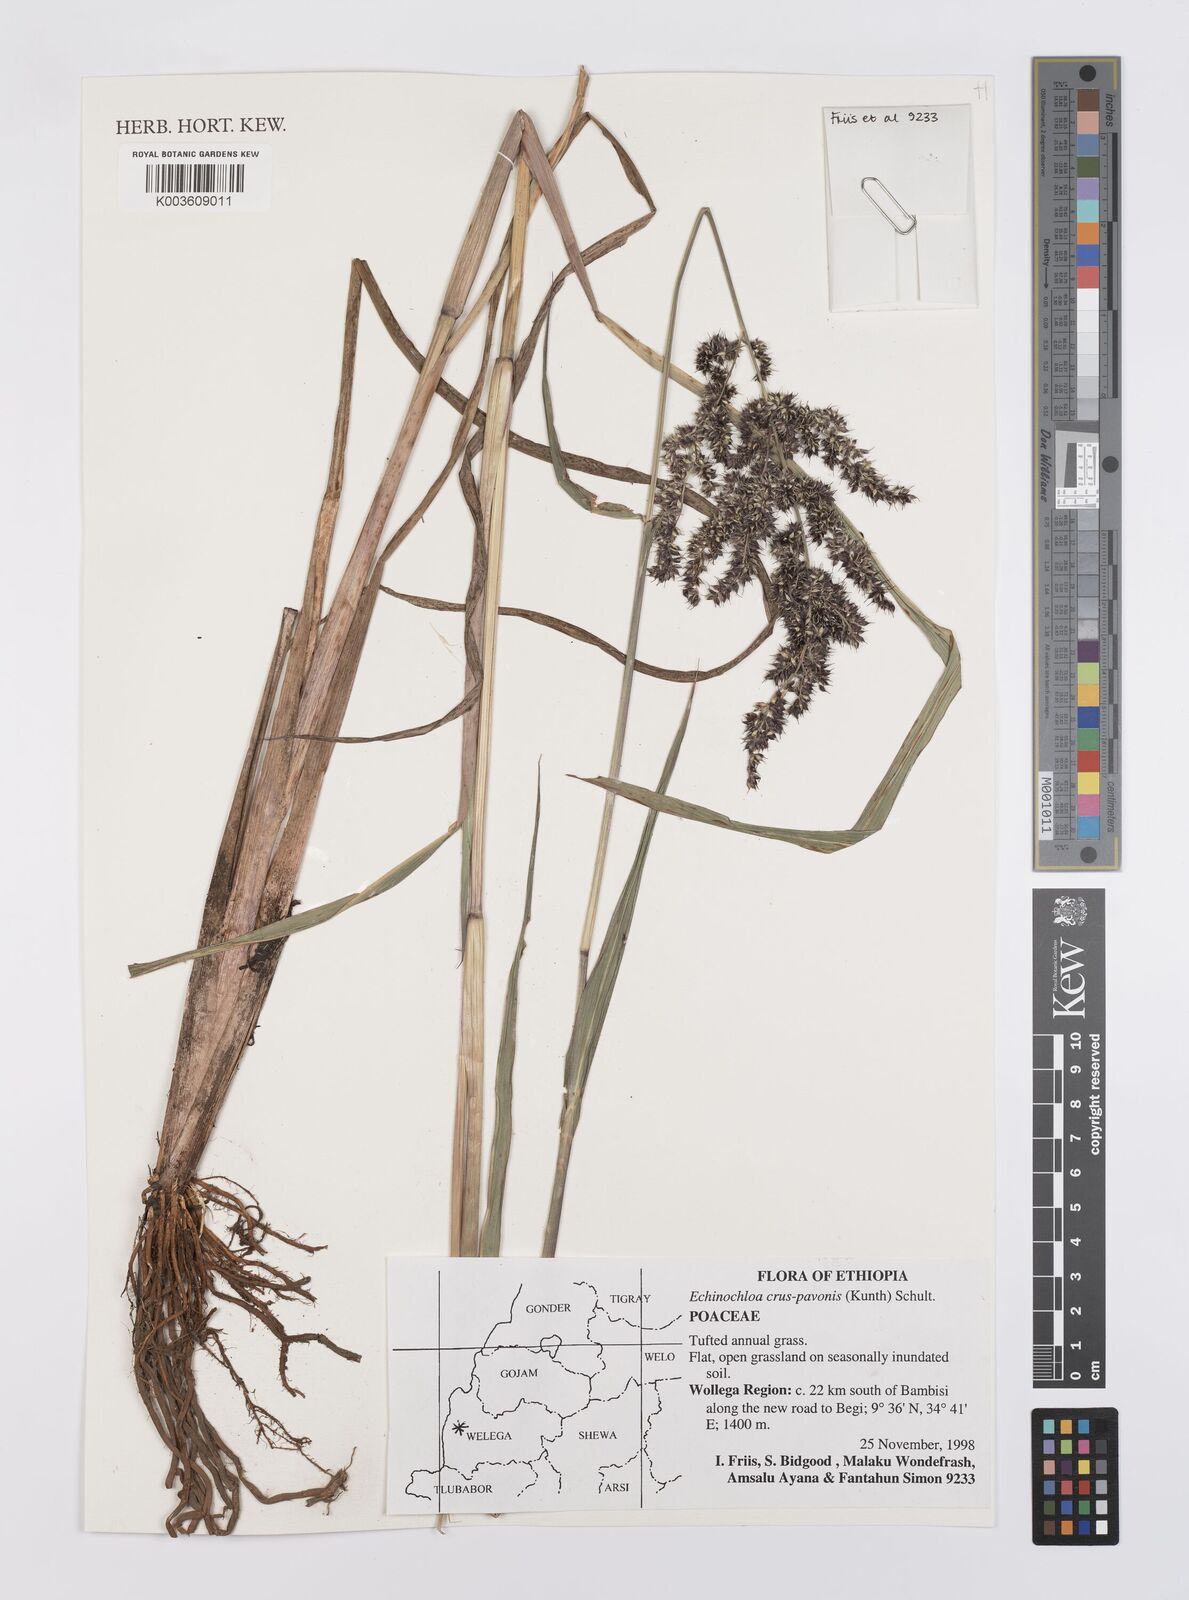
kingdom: Plantae
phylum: Tracheophyta
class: Liliopsida
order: Poales
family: Poaceae
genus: Echinochloa
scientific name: Echinochloa crus-pavonis
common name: Gulf cockspur grass
